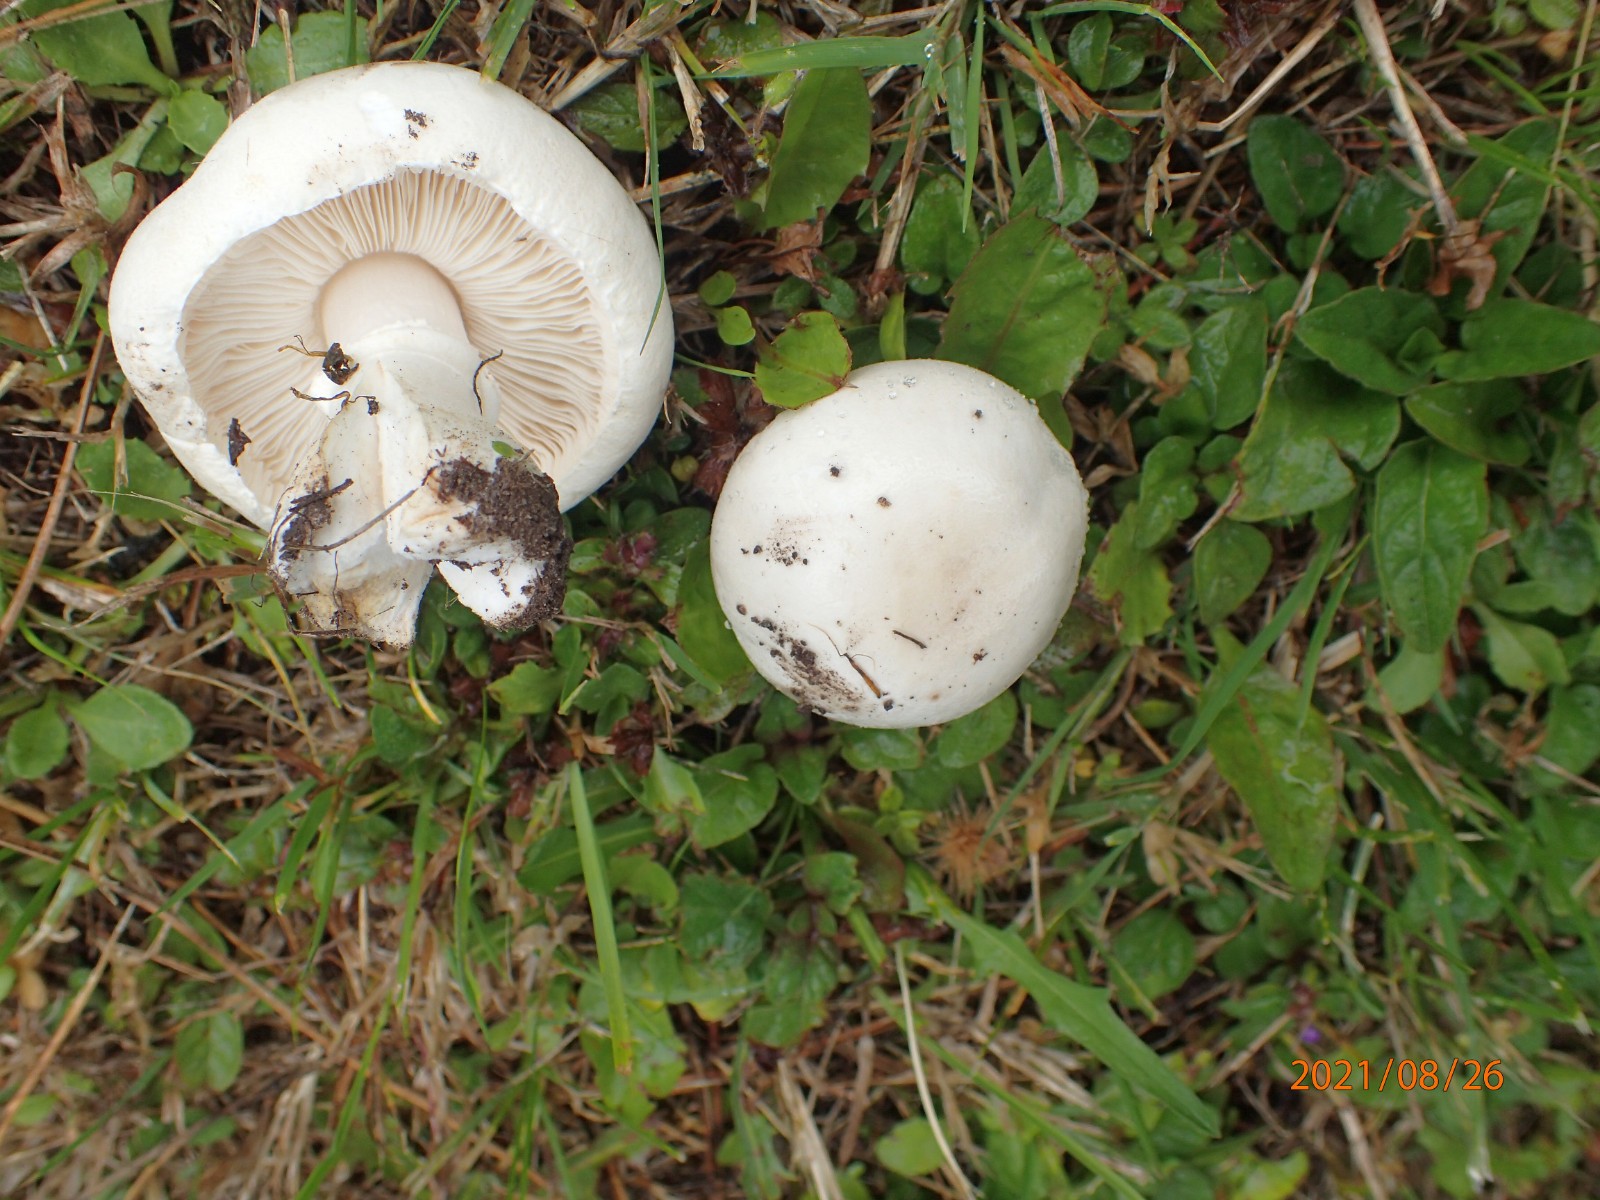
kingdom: Fungi
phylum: Basidiomycota
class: Agaricomycetes
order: Agaricales
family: Agaricaceae
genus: Leucoagaricus
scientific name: Leucoagaricus leucothites
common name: rosabladet silkehat
